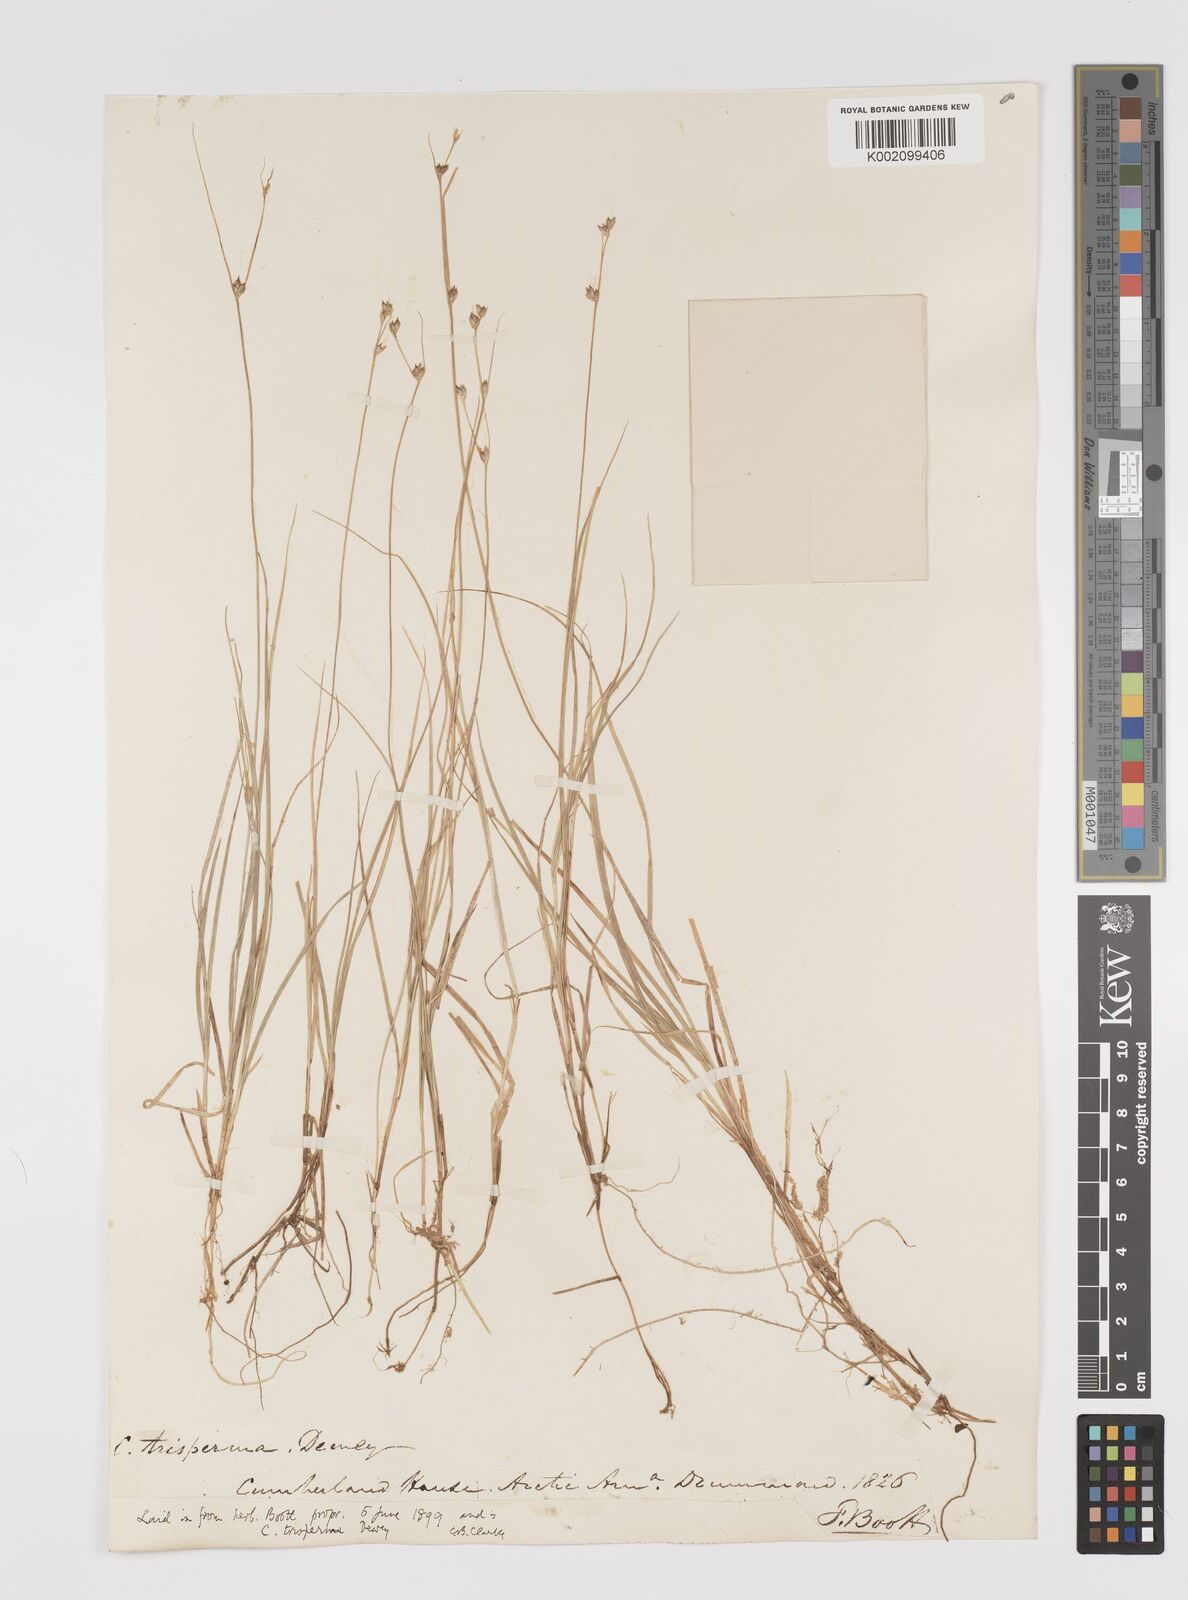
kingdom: Plantae
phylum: Tracheophyta
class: Liliopsida
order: Poales
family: Cyperaceae
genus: Carex
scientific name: Carex trisperma
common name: Three-seeded sedge
